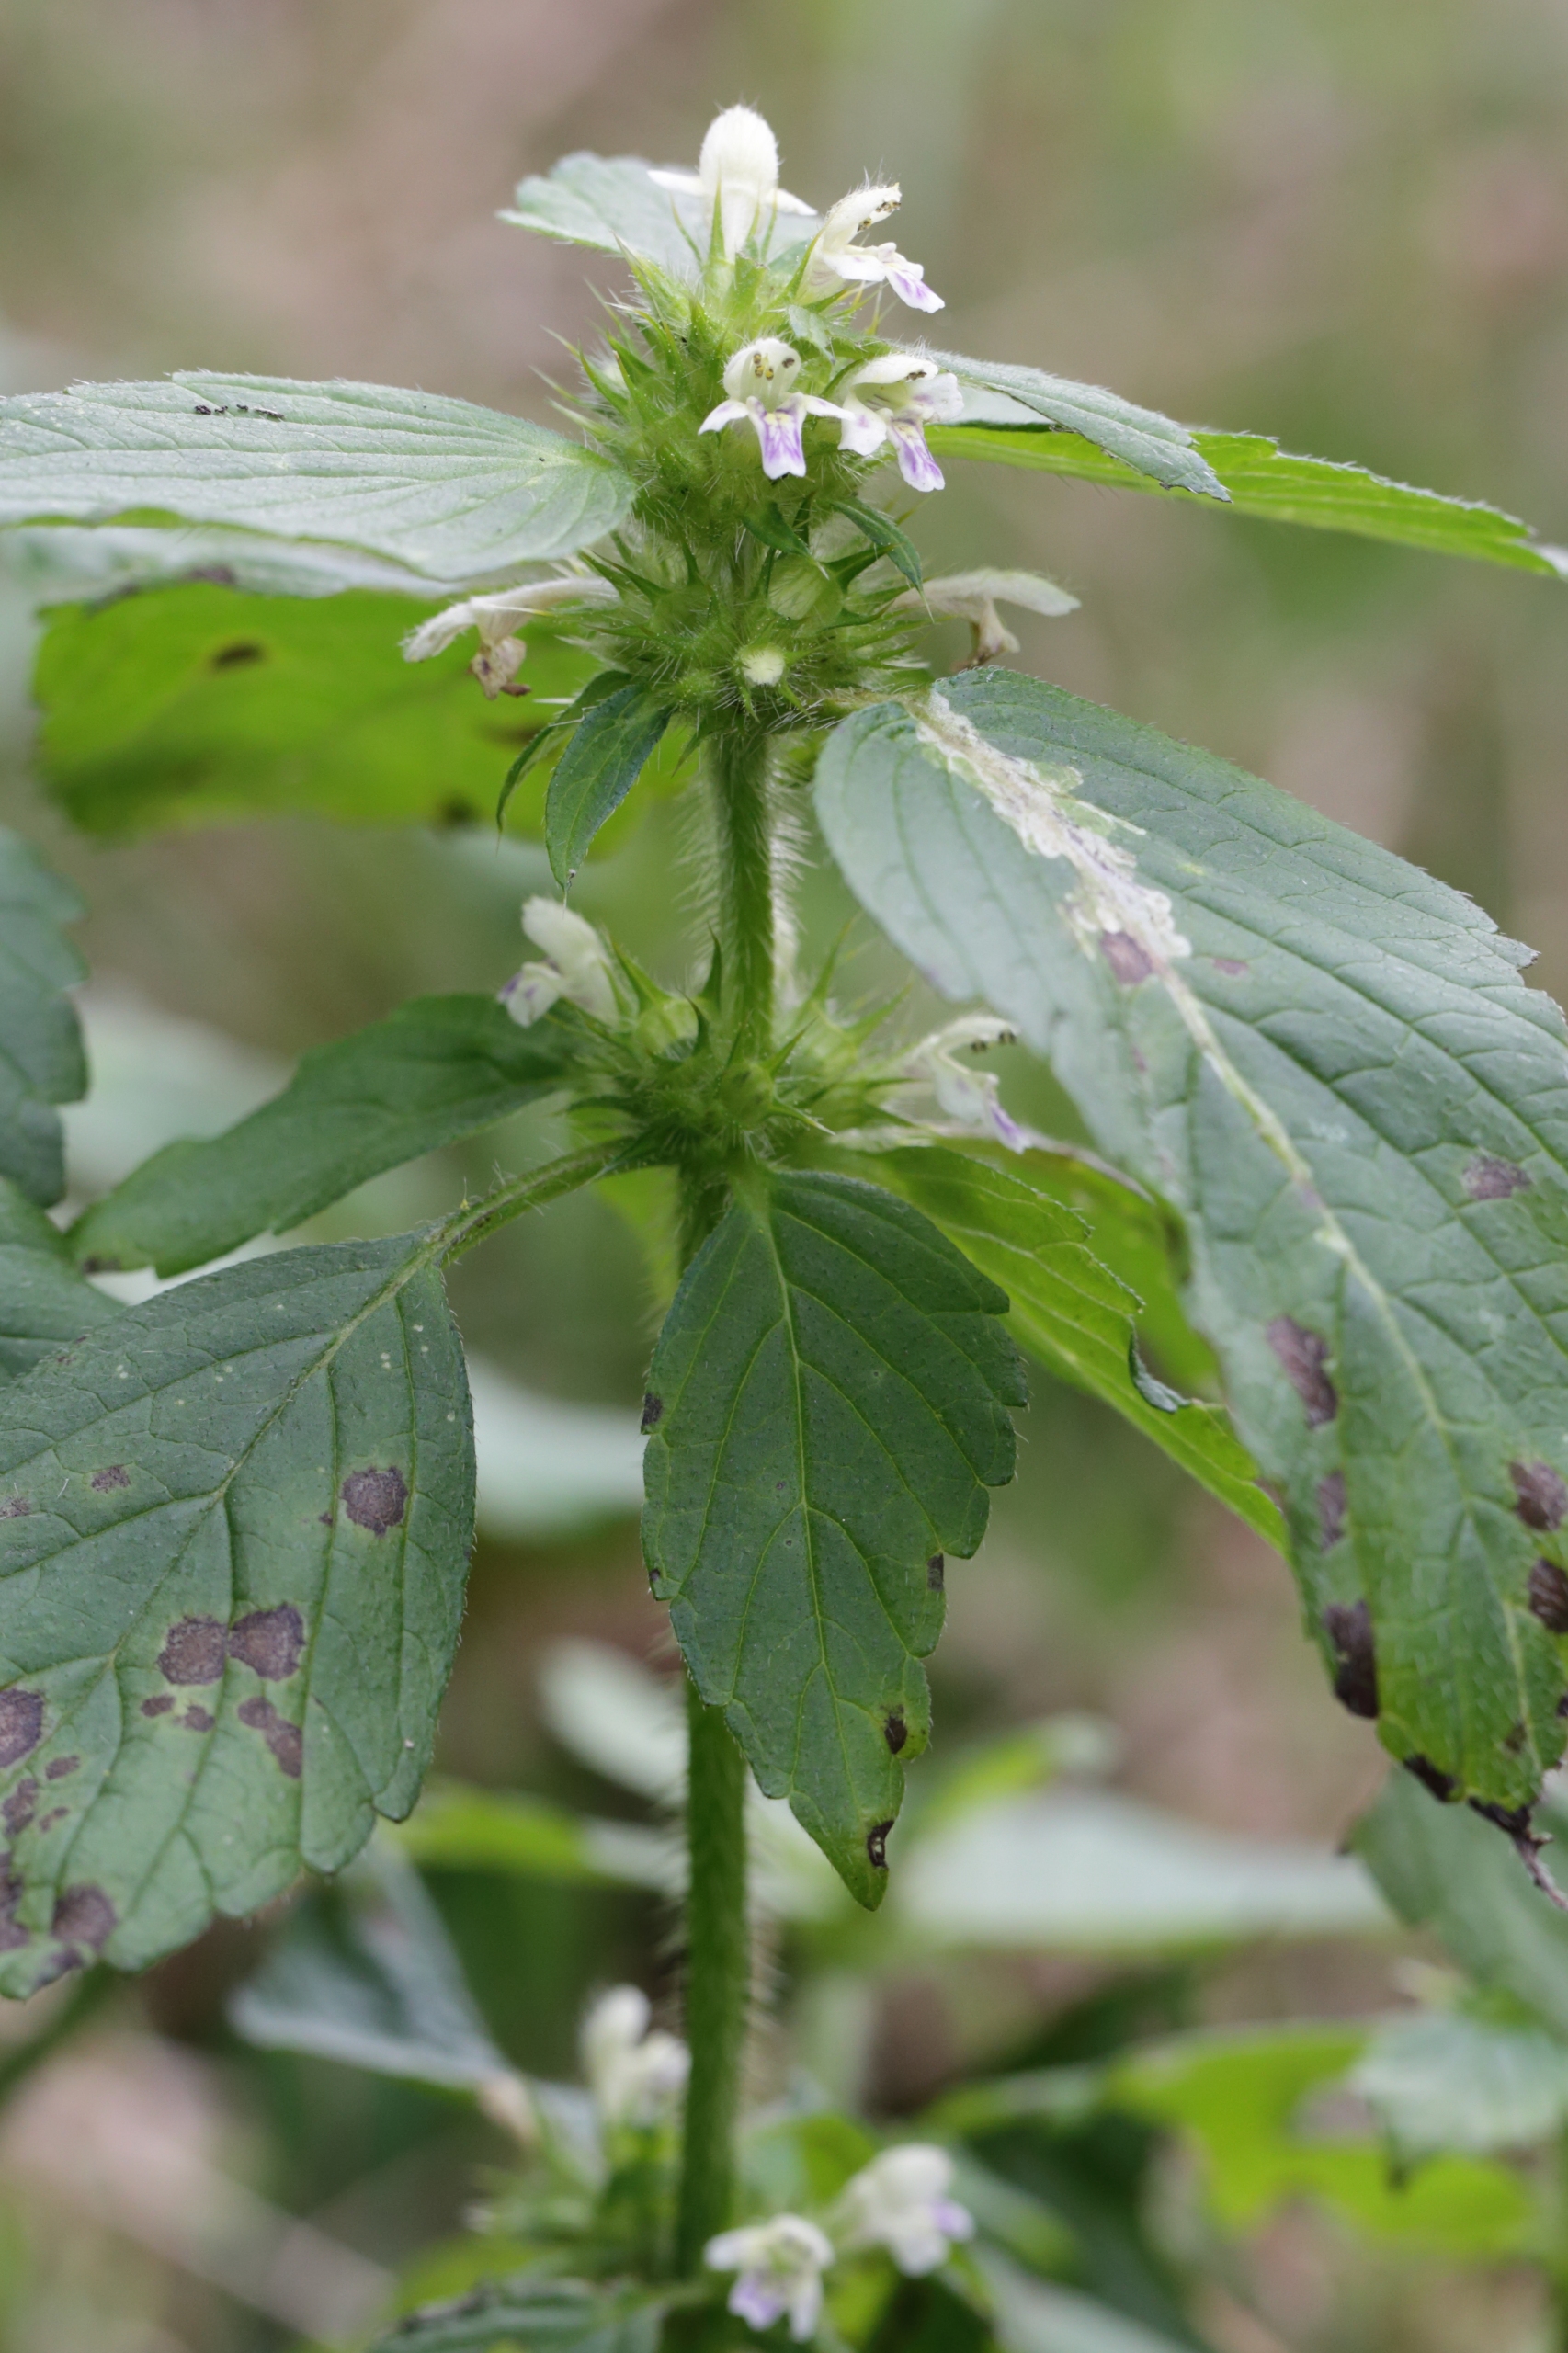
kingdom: Plantae
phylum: Tracheophyta
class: Magnoliopsida
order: Lamiales
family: Lamiaceae
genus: Galeopsis
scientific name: Galeopsis bifida
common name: Skov-hanekro
